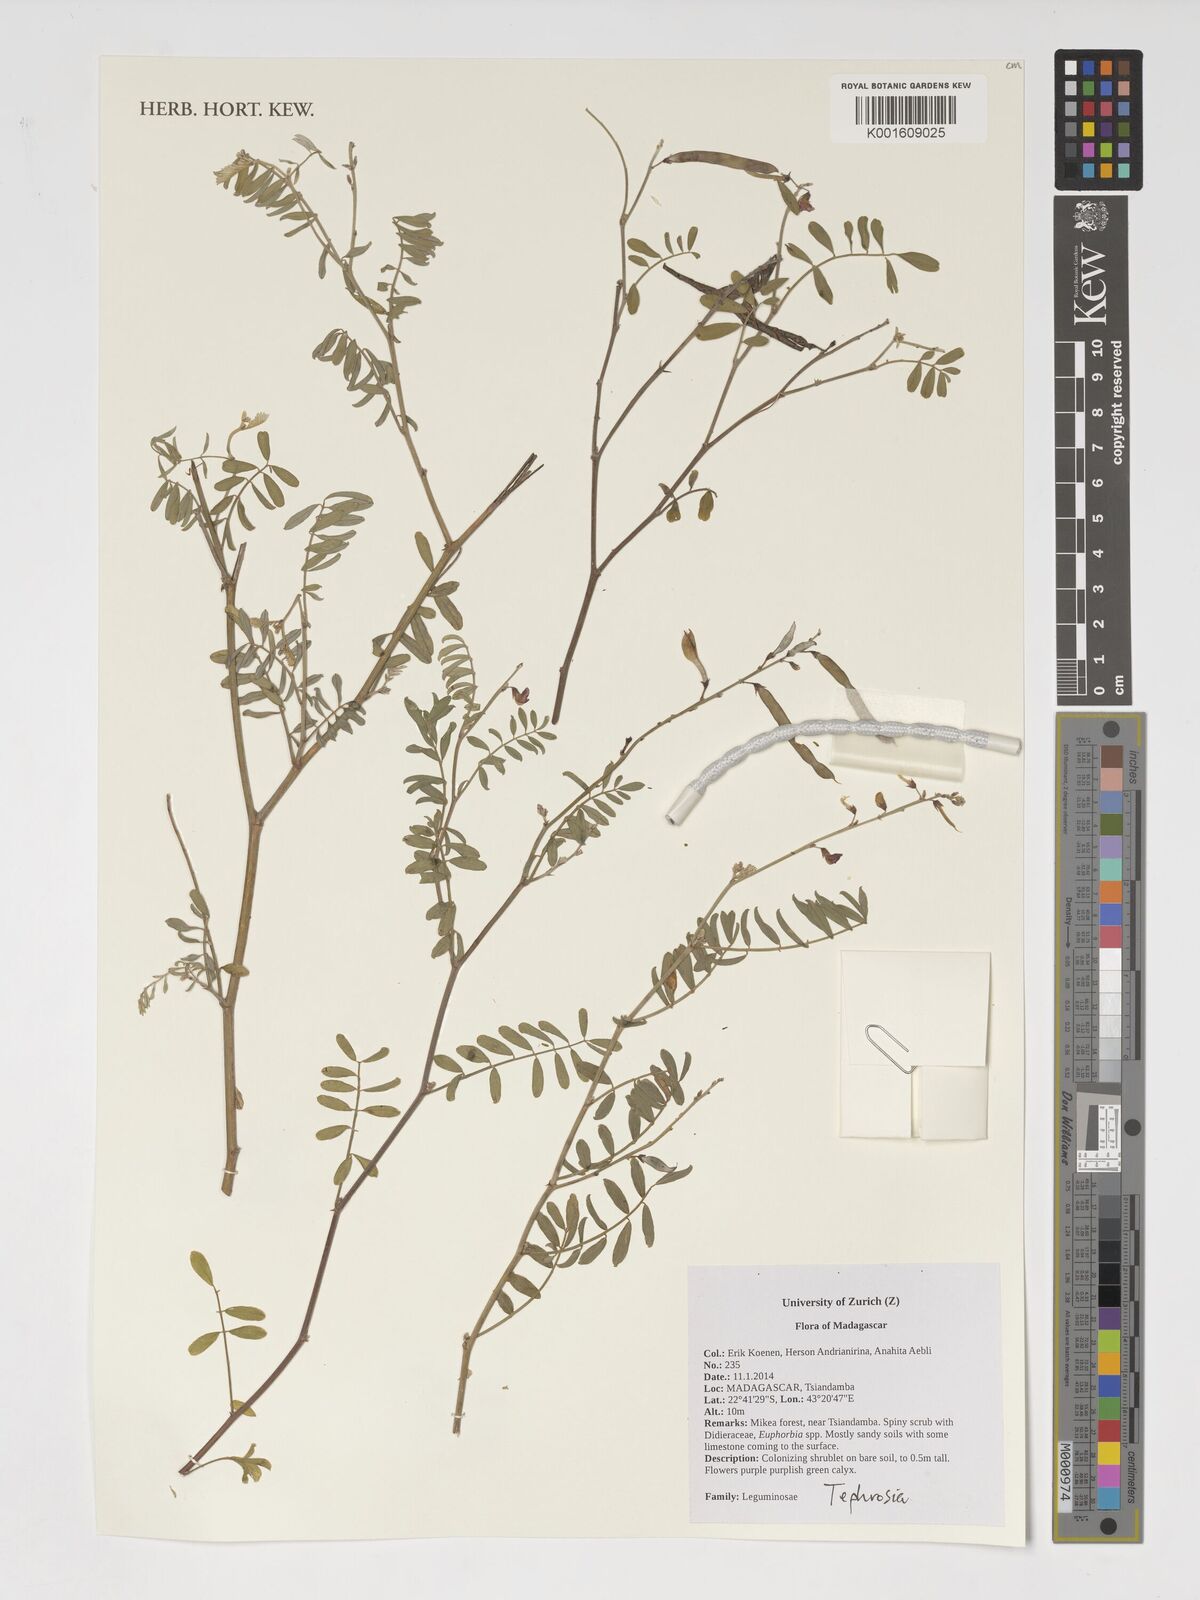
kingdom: Plantae
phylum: Tracheophyta
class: Magnoliopsida
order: Fabales
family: Fabaceae
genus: Tephrosia
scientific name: Tephrosia
